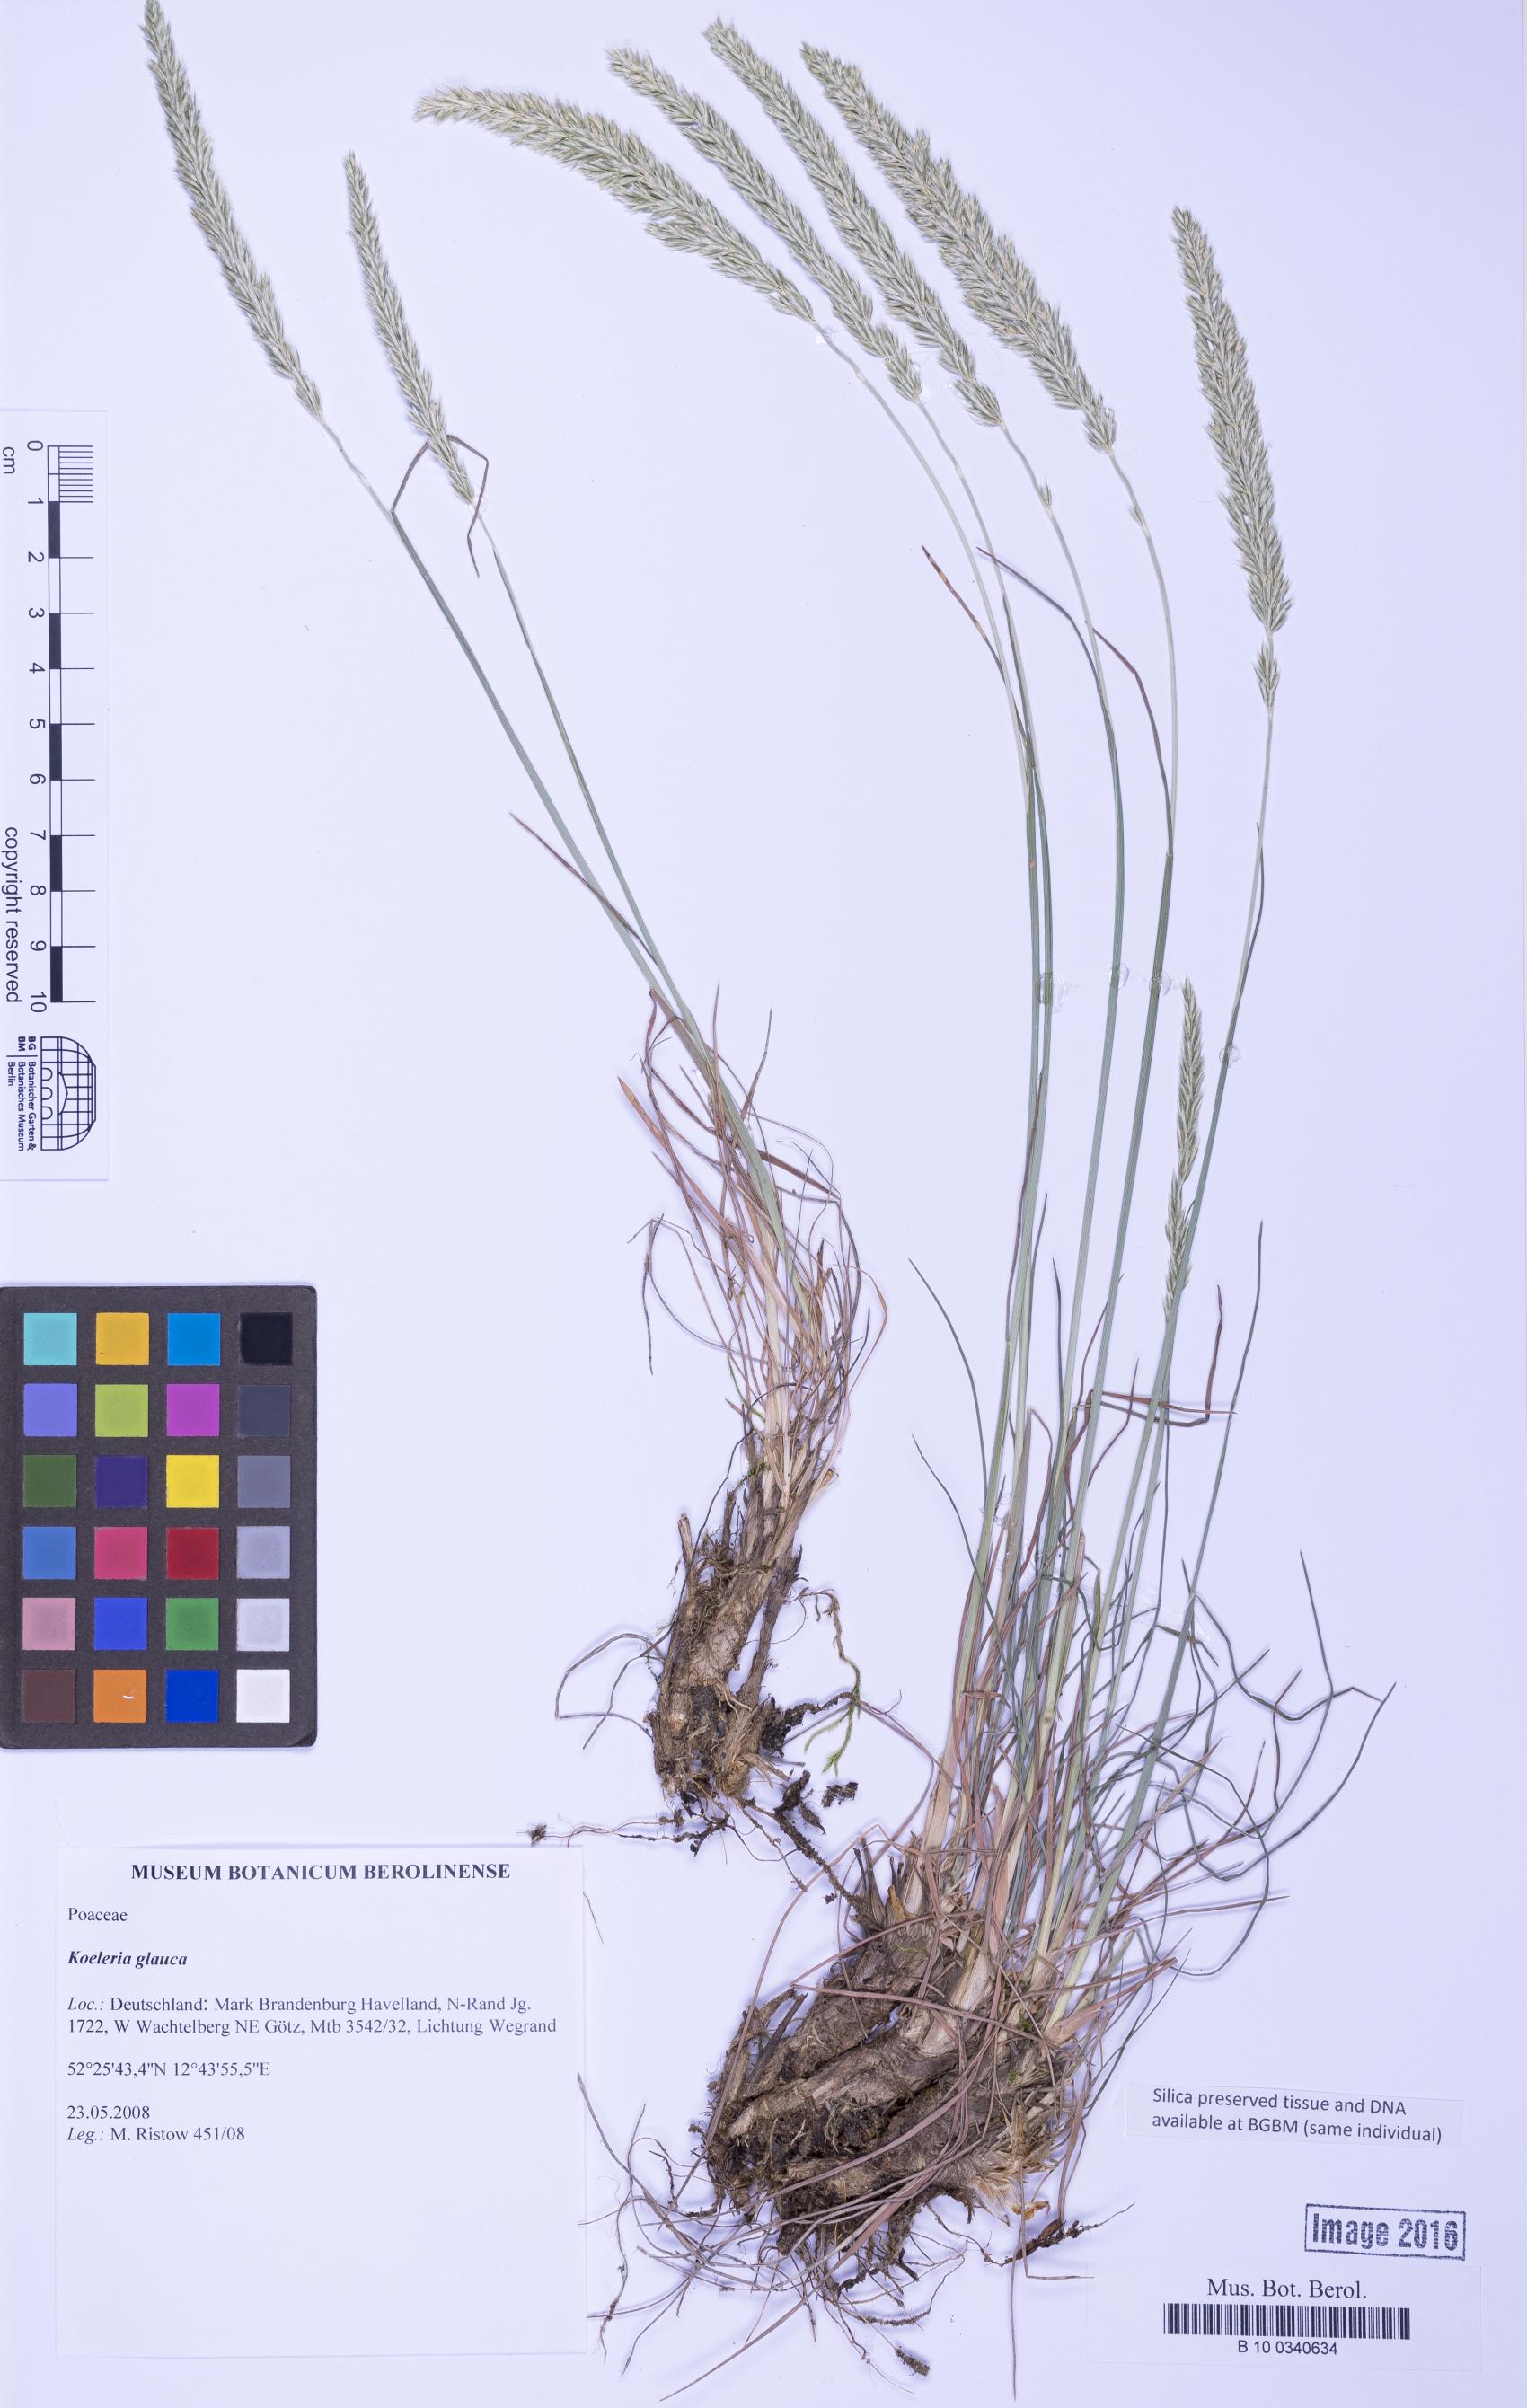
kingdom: Plantae
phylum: Tracheophyta
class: Liliopsida
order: Poales
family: Poaceae
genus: Koeleria
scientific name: Koeleria glauca
